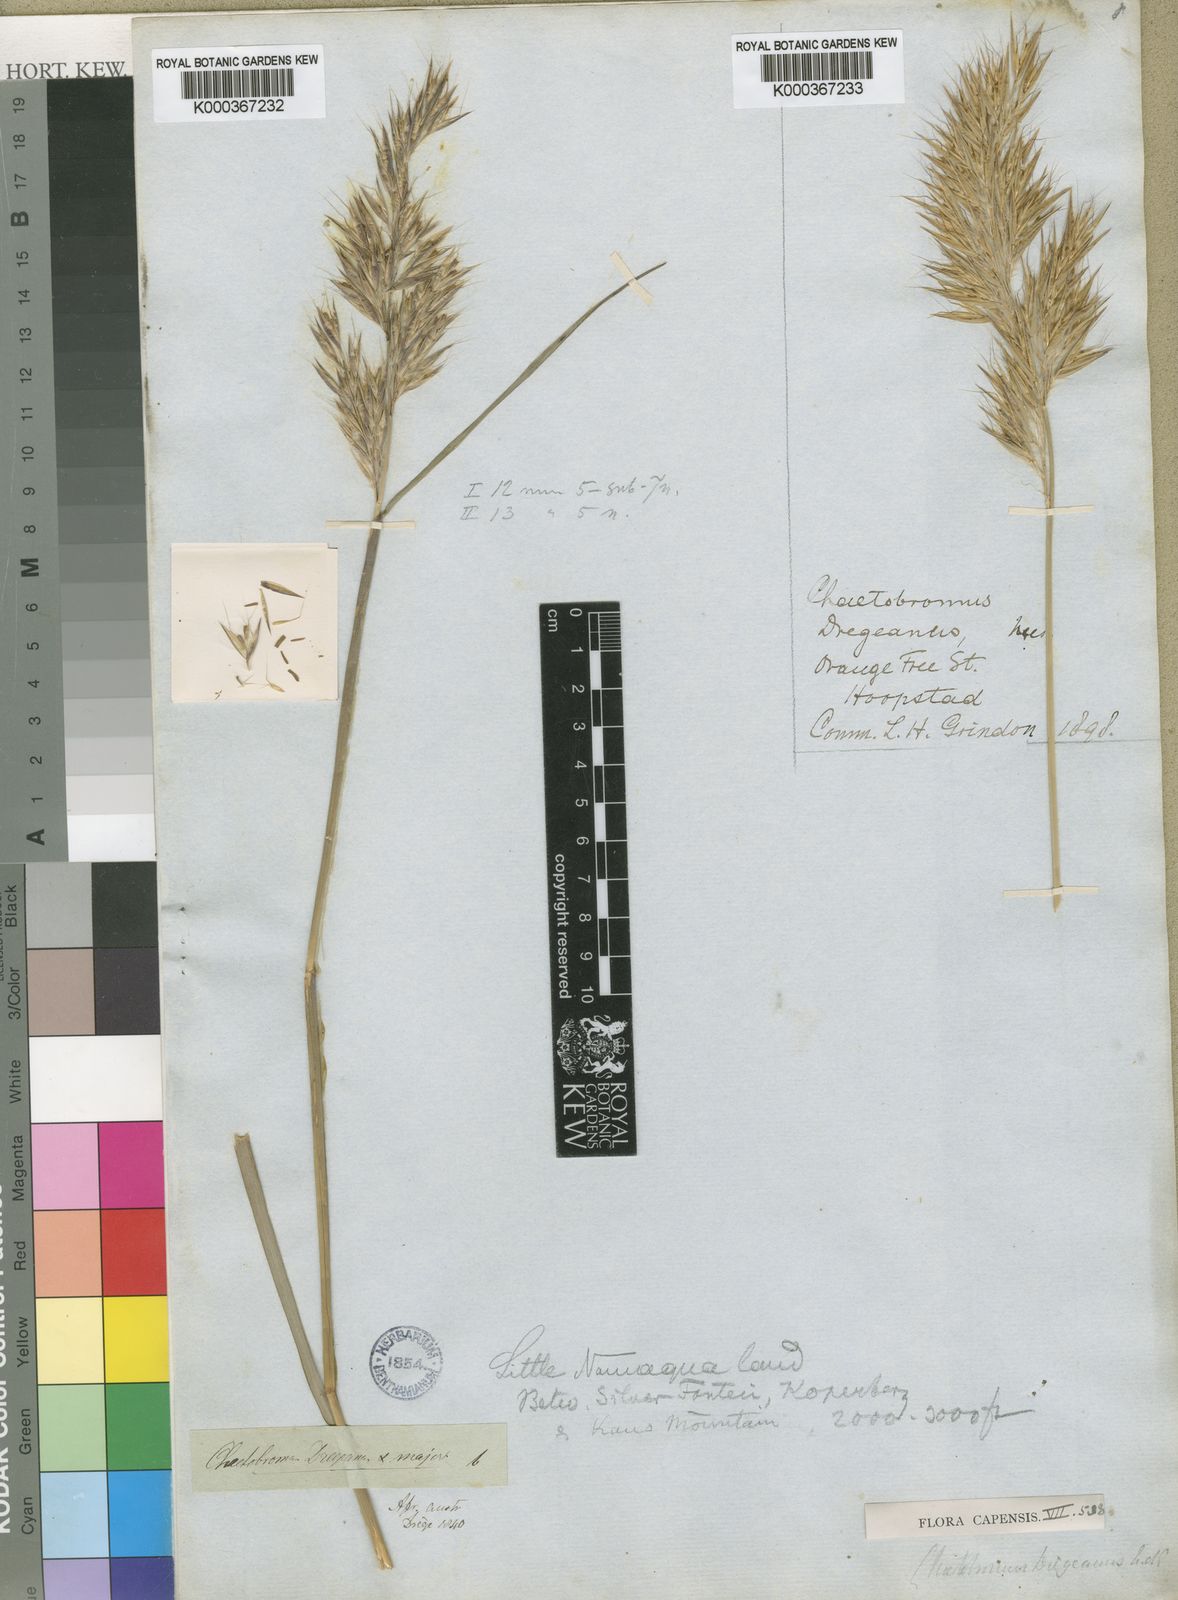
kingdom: Plantae
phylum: Tracheophyta
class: Liliopsida
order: Poales
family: Poaceae
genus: Chaetobromus
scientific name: Chaetobromus involucratus
